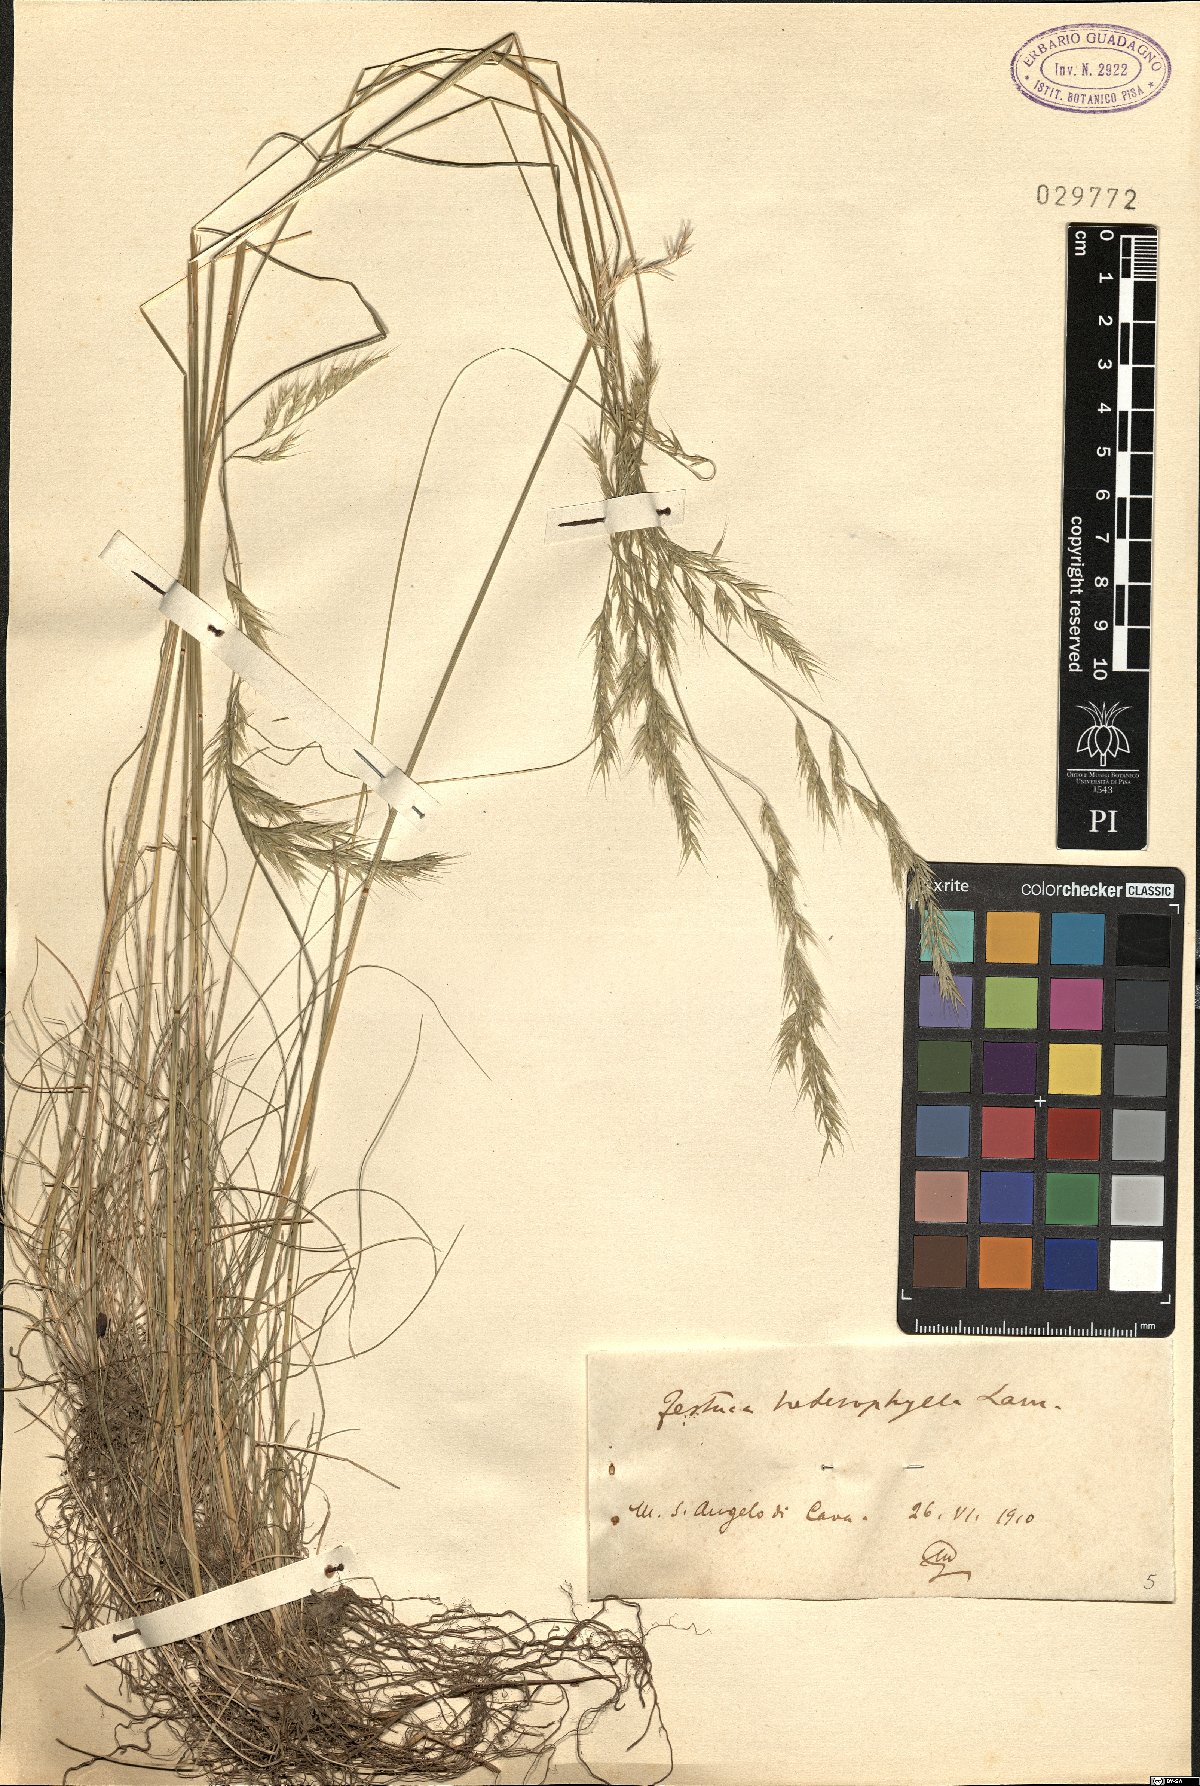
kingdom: Plantae
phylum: Tracheophyta
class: Liliopsida
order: Poales
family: Poaceae
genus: Festuca
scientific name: Festuca heterophylla
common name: Various-leaved fescue
